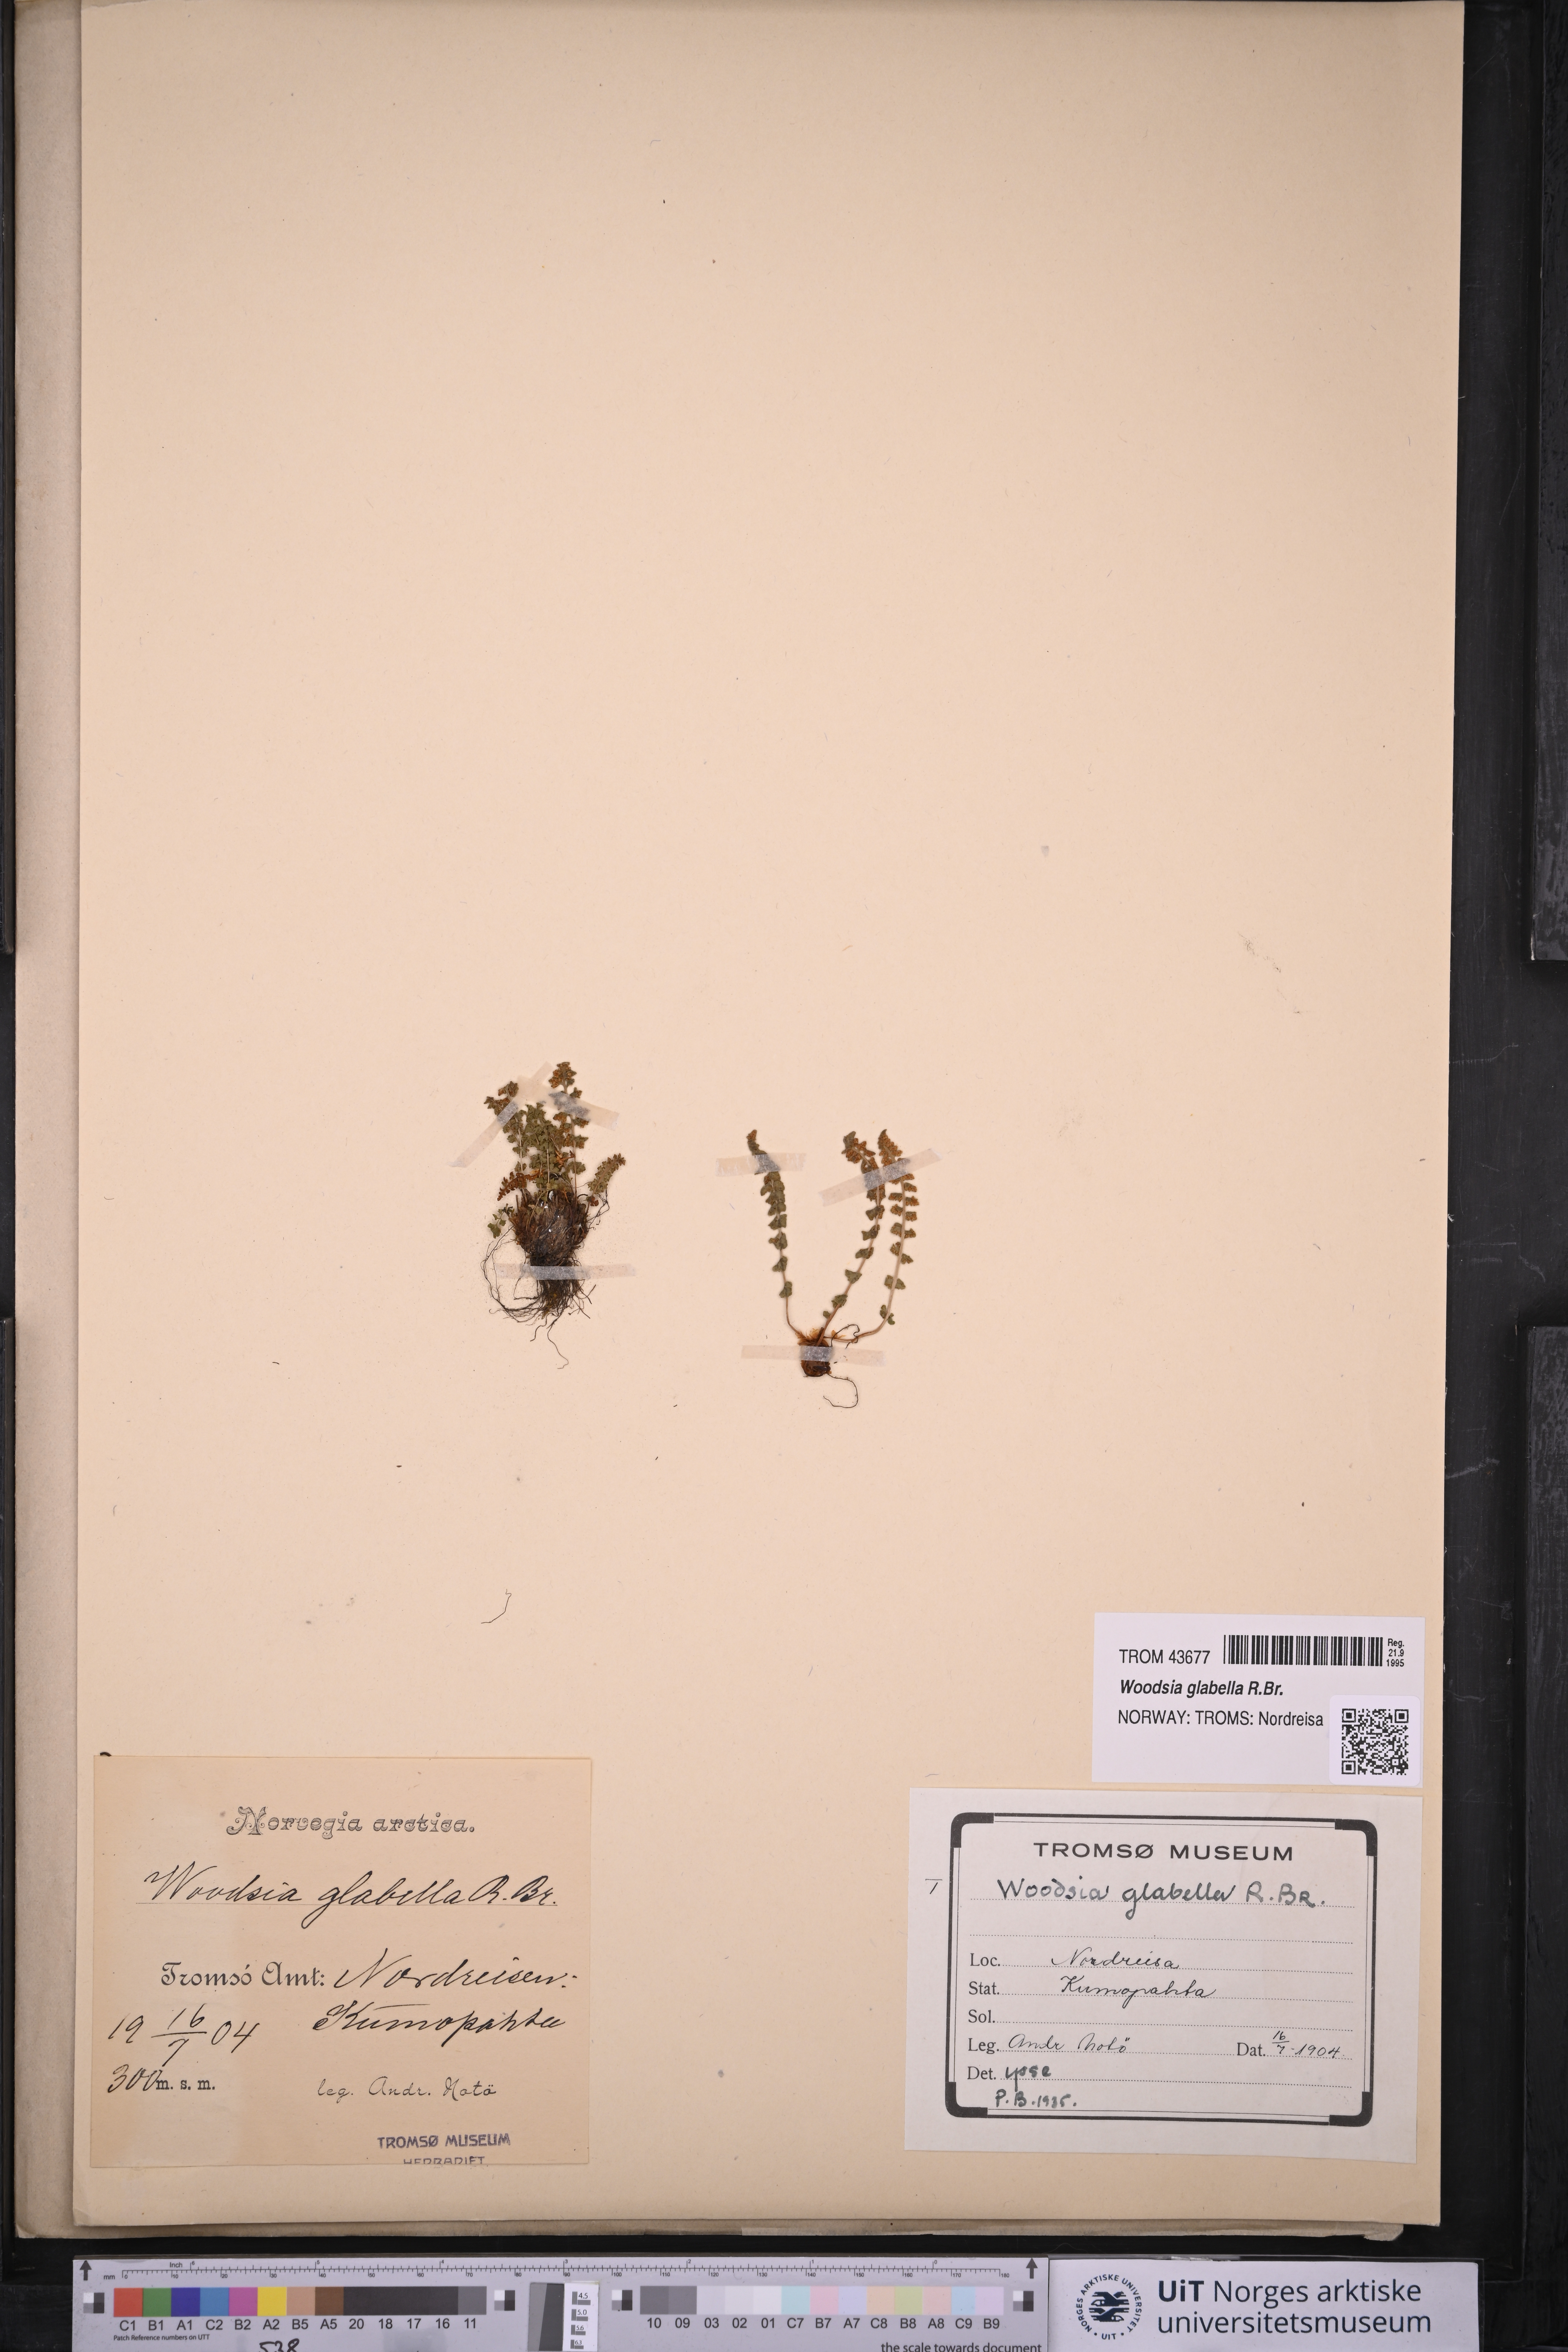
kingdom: Plantae
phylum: Tracheophyta
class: Polypodiopsida
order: Polypodiales
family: Woodsiaceae
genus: Woodsia
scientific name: Woodsia glabella
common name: Smooth woodsia
